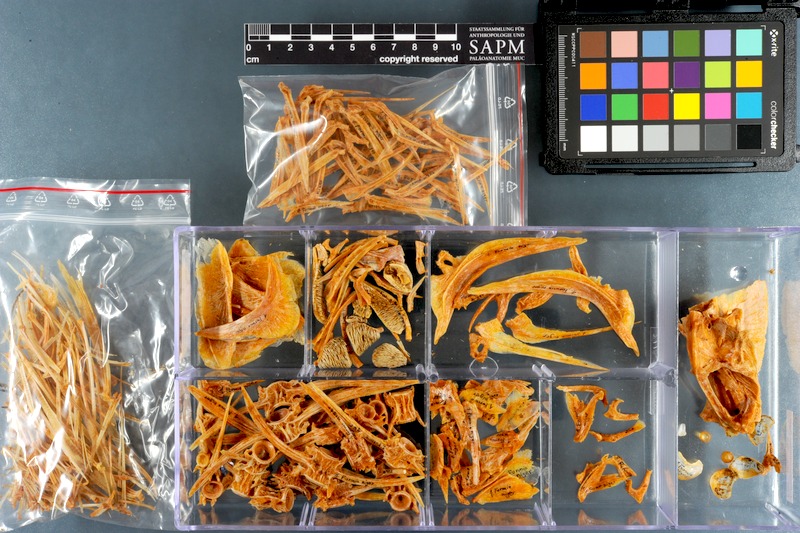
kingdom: Animalia
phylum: Chordata
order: Perciformes
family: Carangidae
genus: Parastromateus
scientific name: Parastromateus niger
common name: Black pomfret
